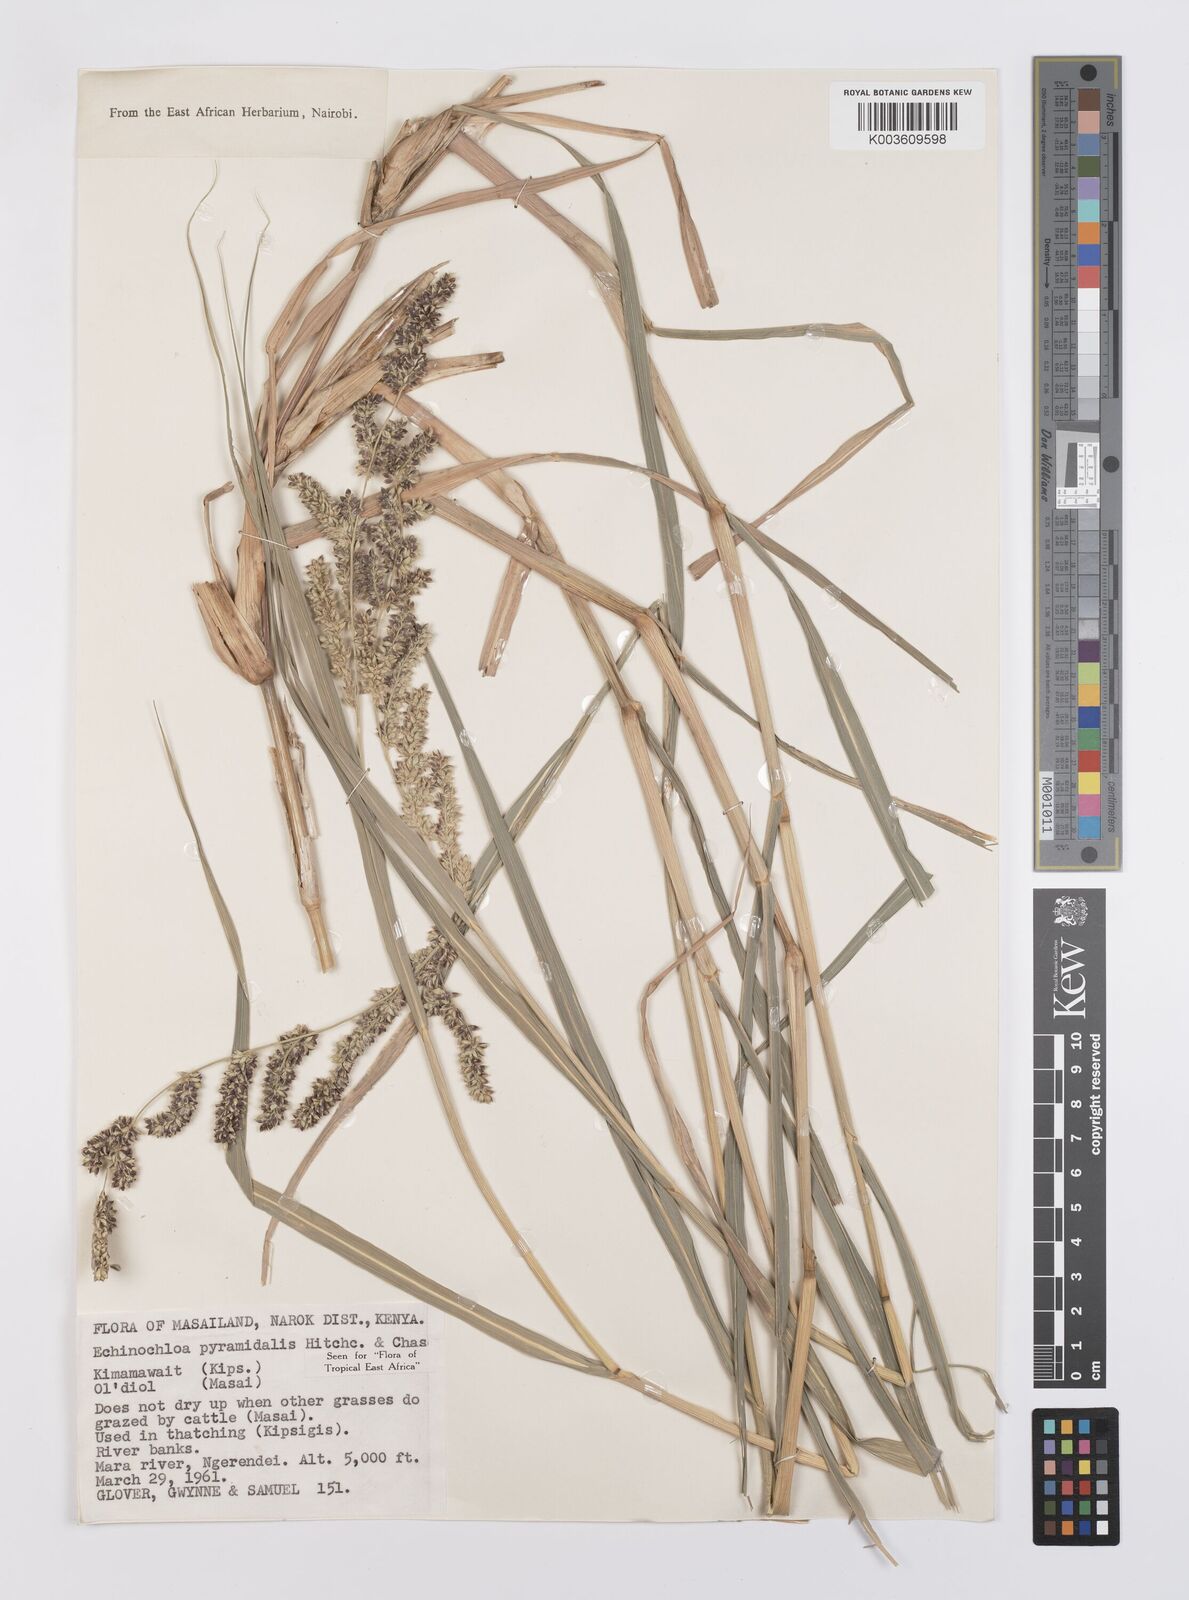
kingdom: Plantae
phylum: Tracheophyta
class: Liliopsida
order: Poales
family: Poaceae
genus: Echinochloa
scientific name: Echinochloa pyramidalis
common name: Antelope grass
